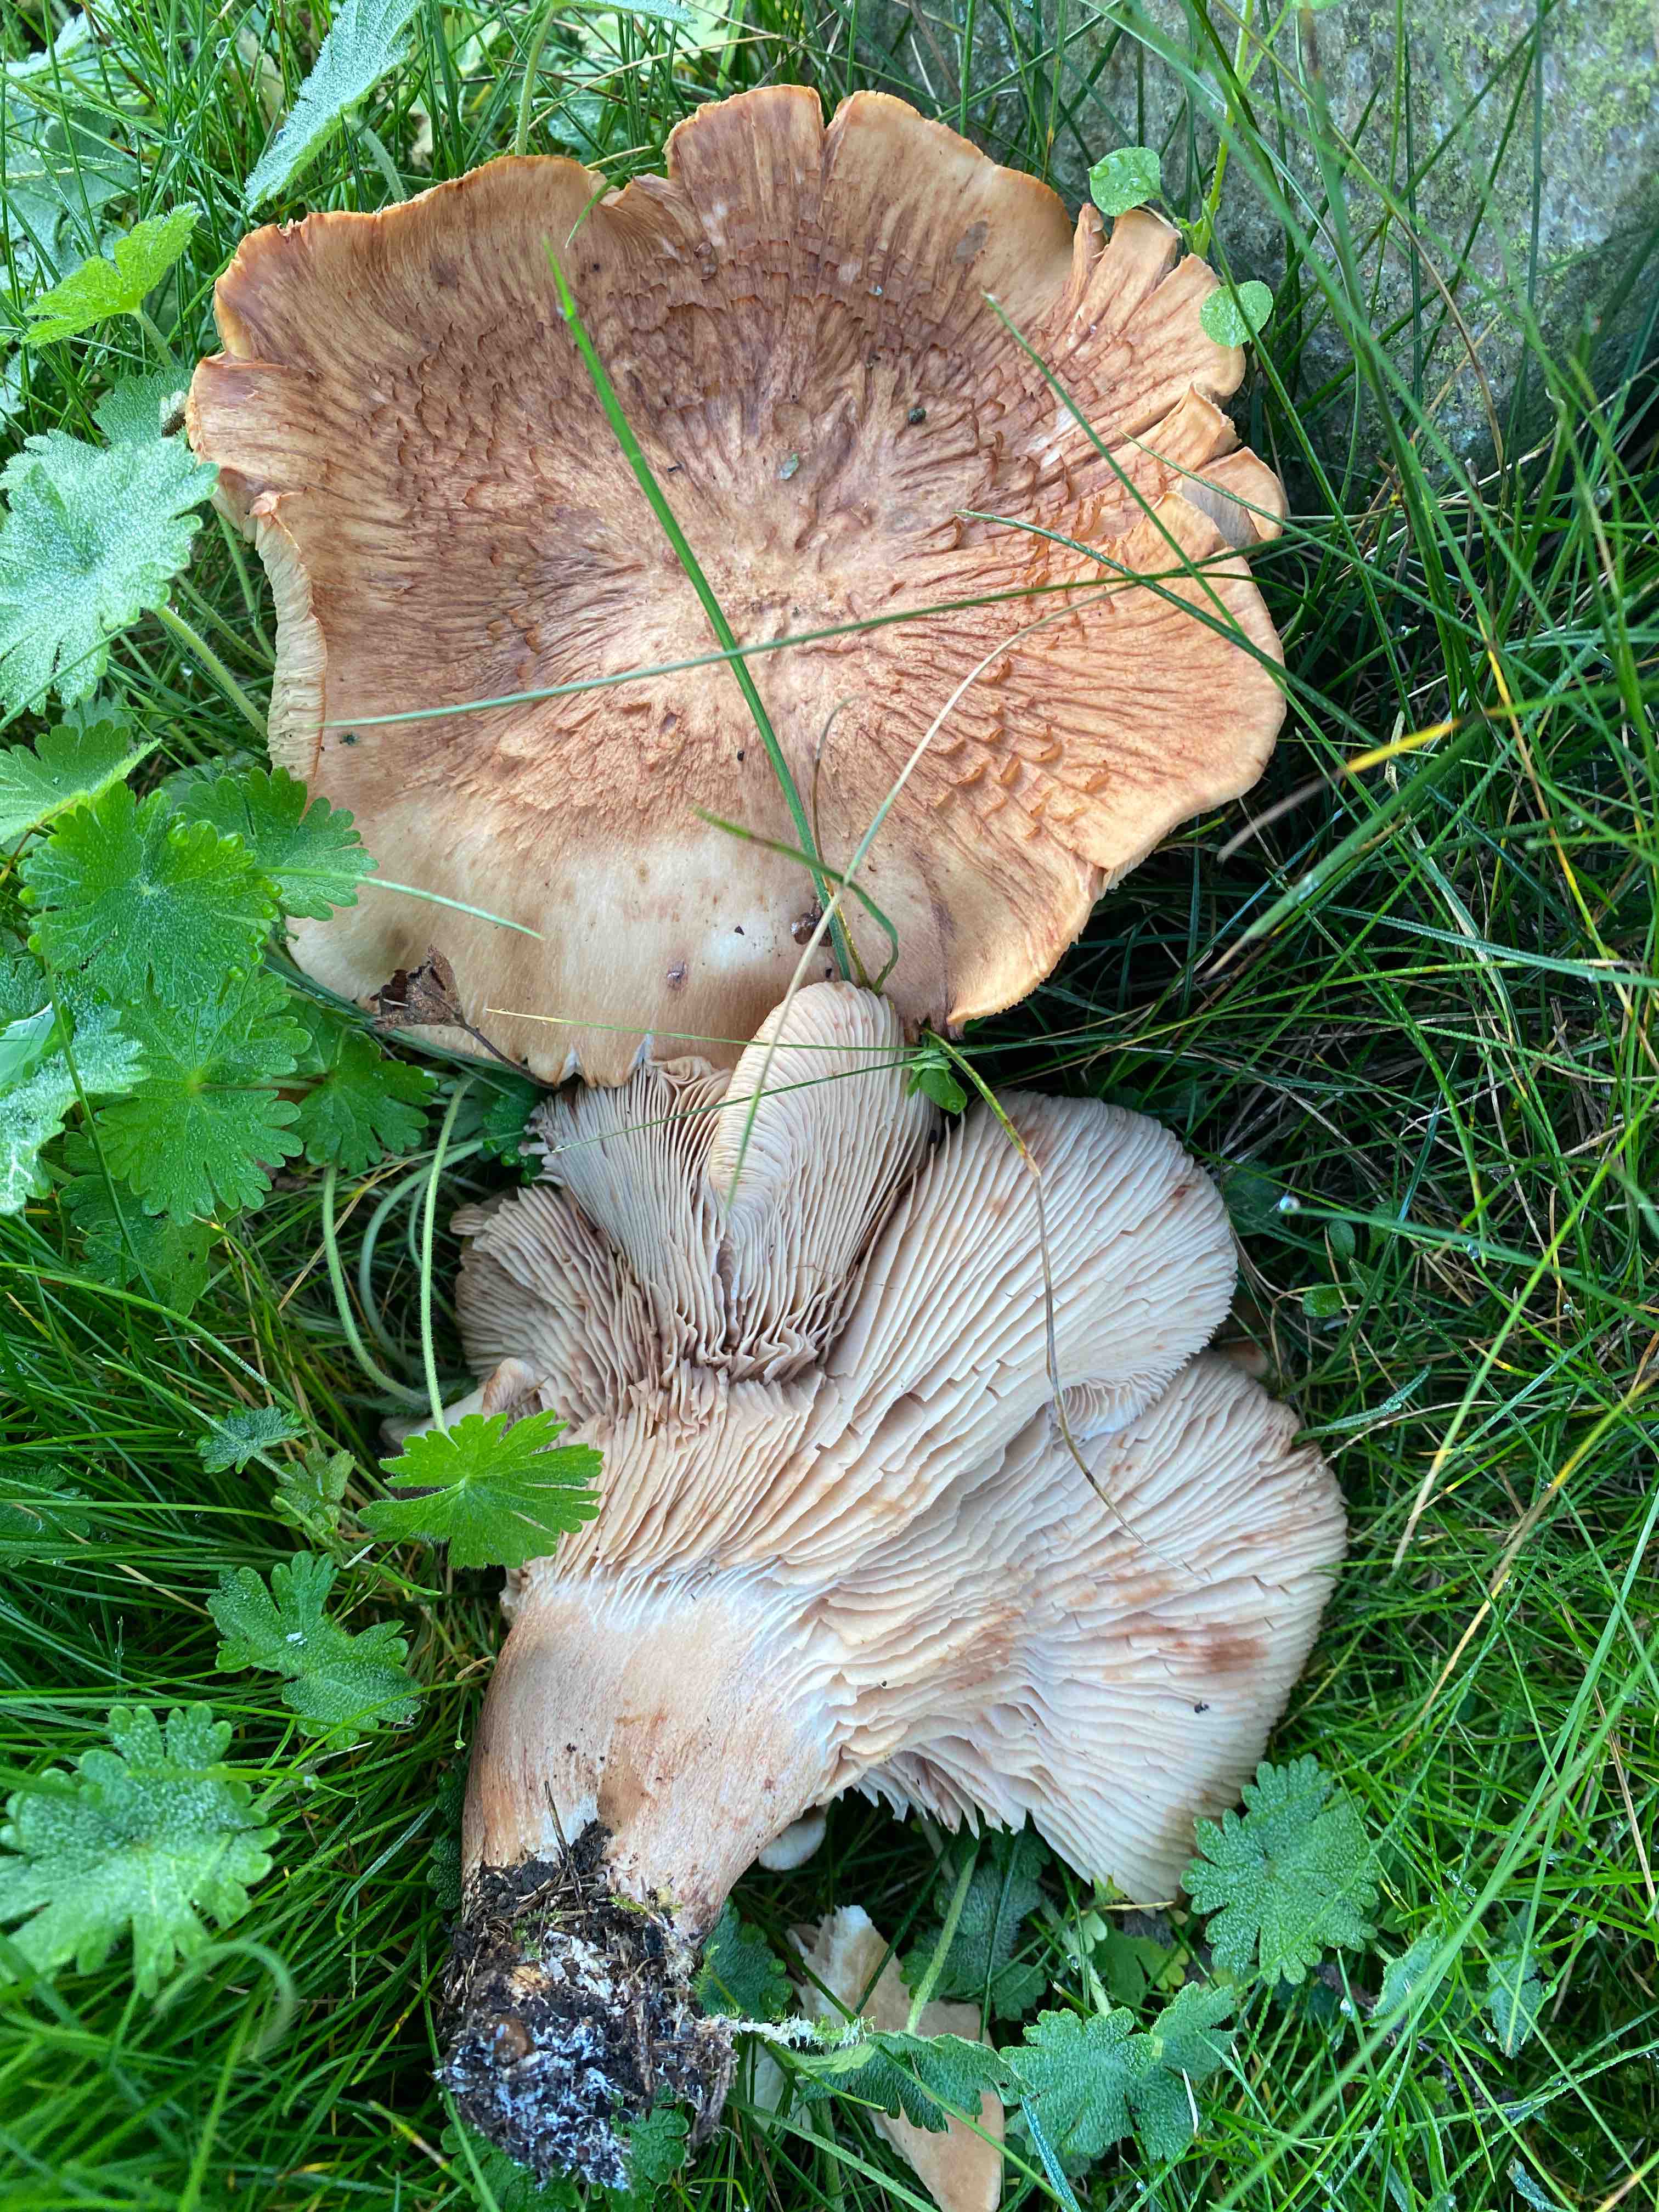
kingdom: Fungi
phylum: Basidiomycota
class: Agaricomycetes
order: Agaricales
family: Entolomataceae
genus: Clitopilus
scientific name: Clitopilus geminus
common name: kødfarvet troldhat
